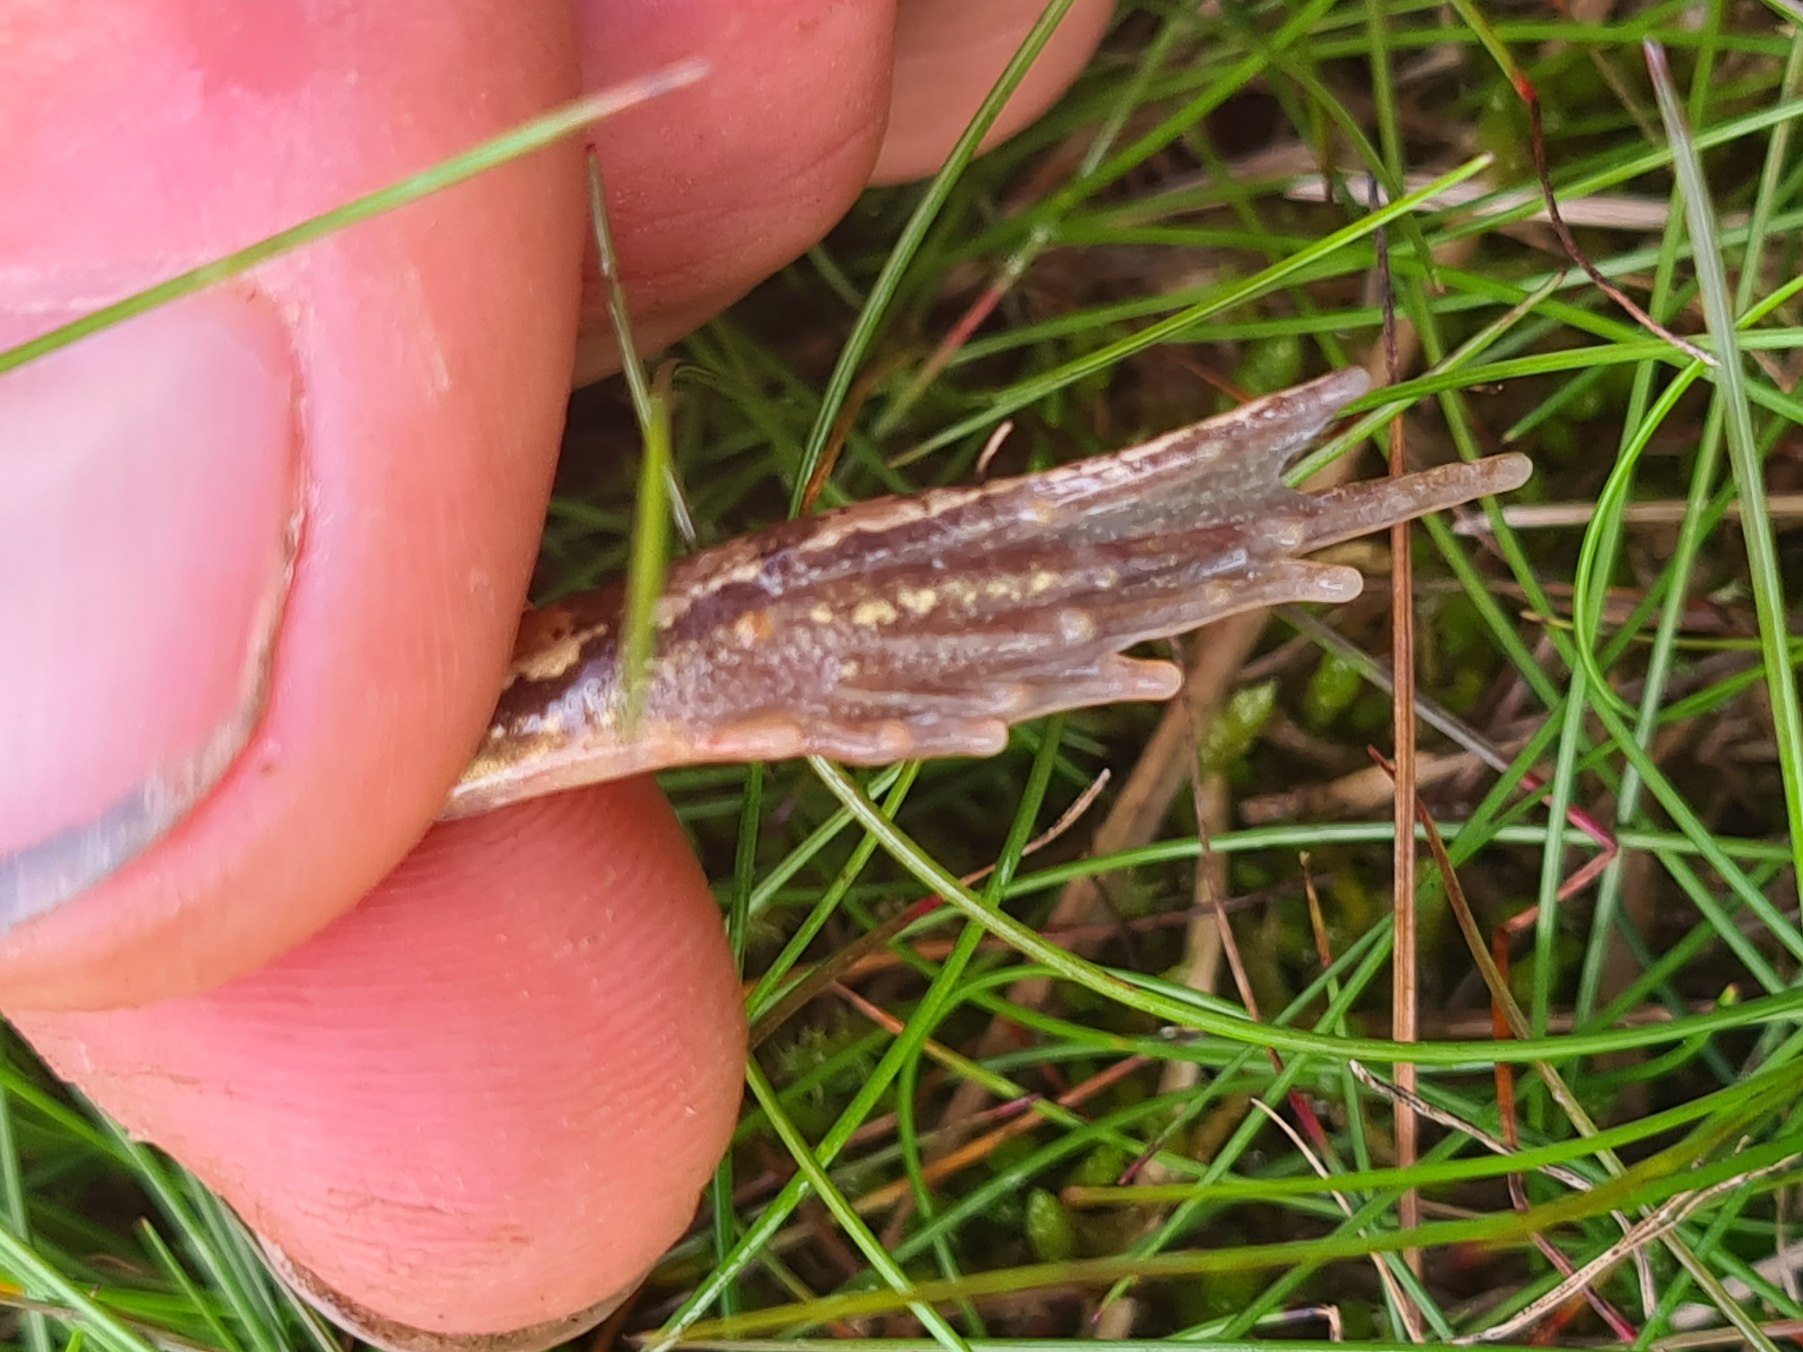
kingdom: Animalia
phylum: Chordata
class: Amphibia
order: Anura
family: Ranidae
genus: Rana
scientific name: Rana temporaria
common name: Butsnudet frø
